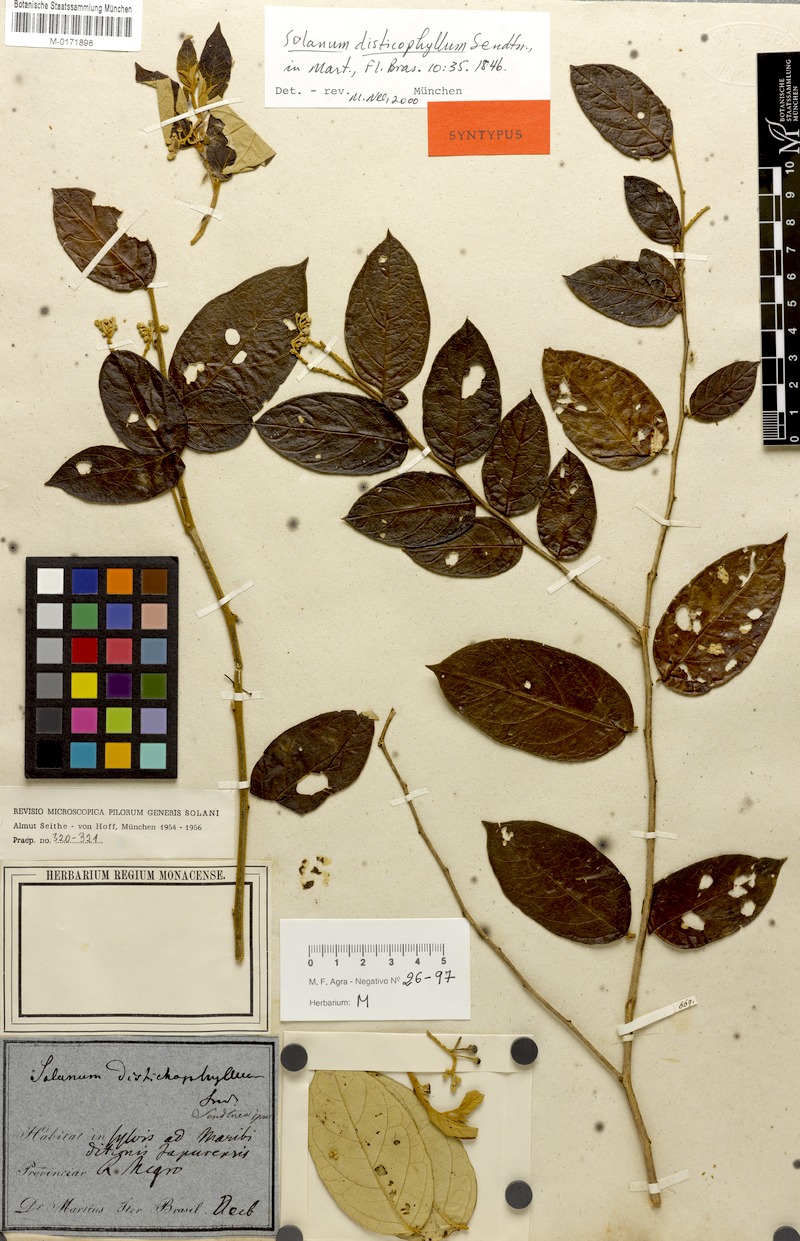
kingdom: Plantae
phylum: Tracheophyta
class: Magnoliopsida
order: Solanales
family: Solanaceae
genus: Solanum
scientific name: Solanum distichophyllum
